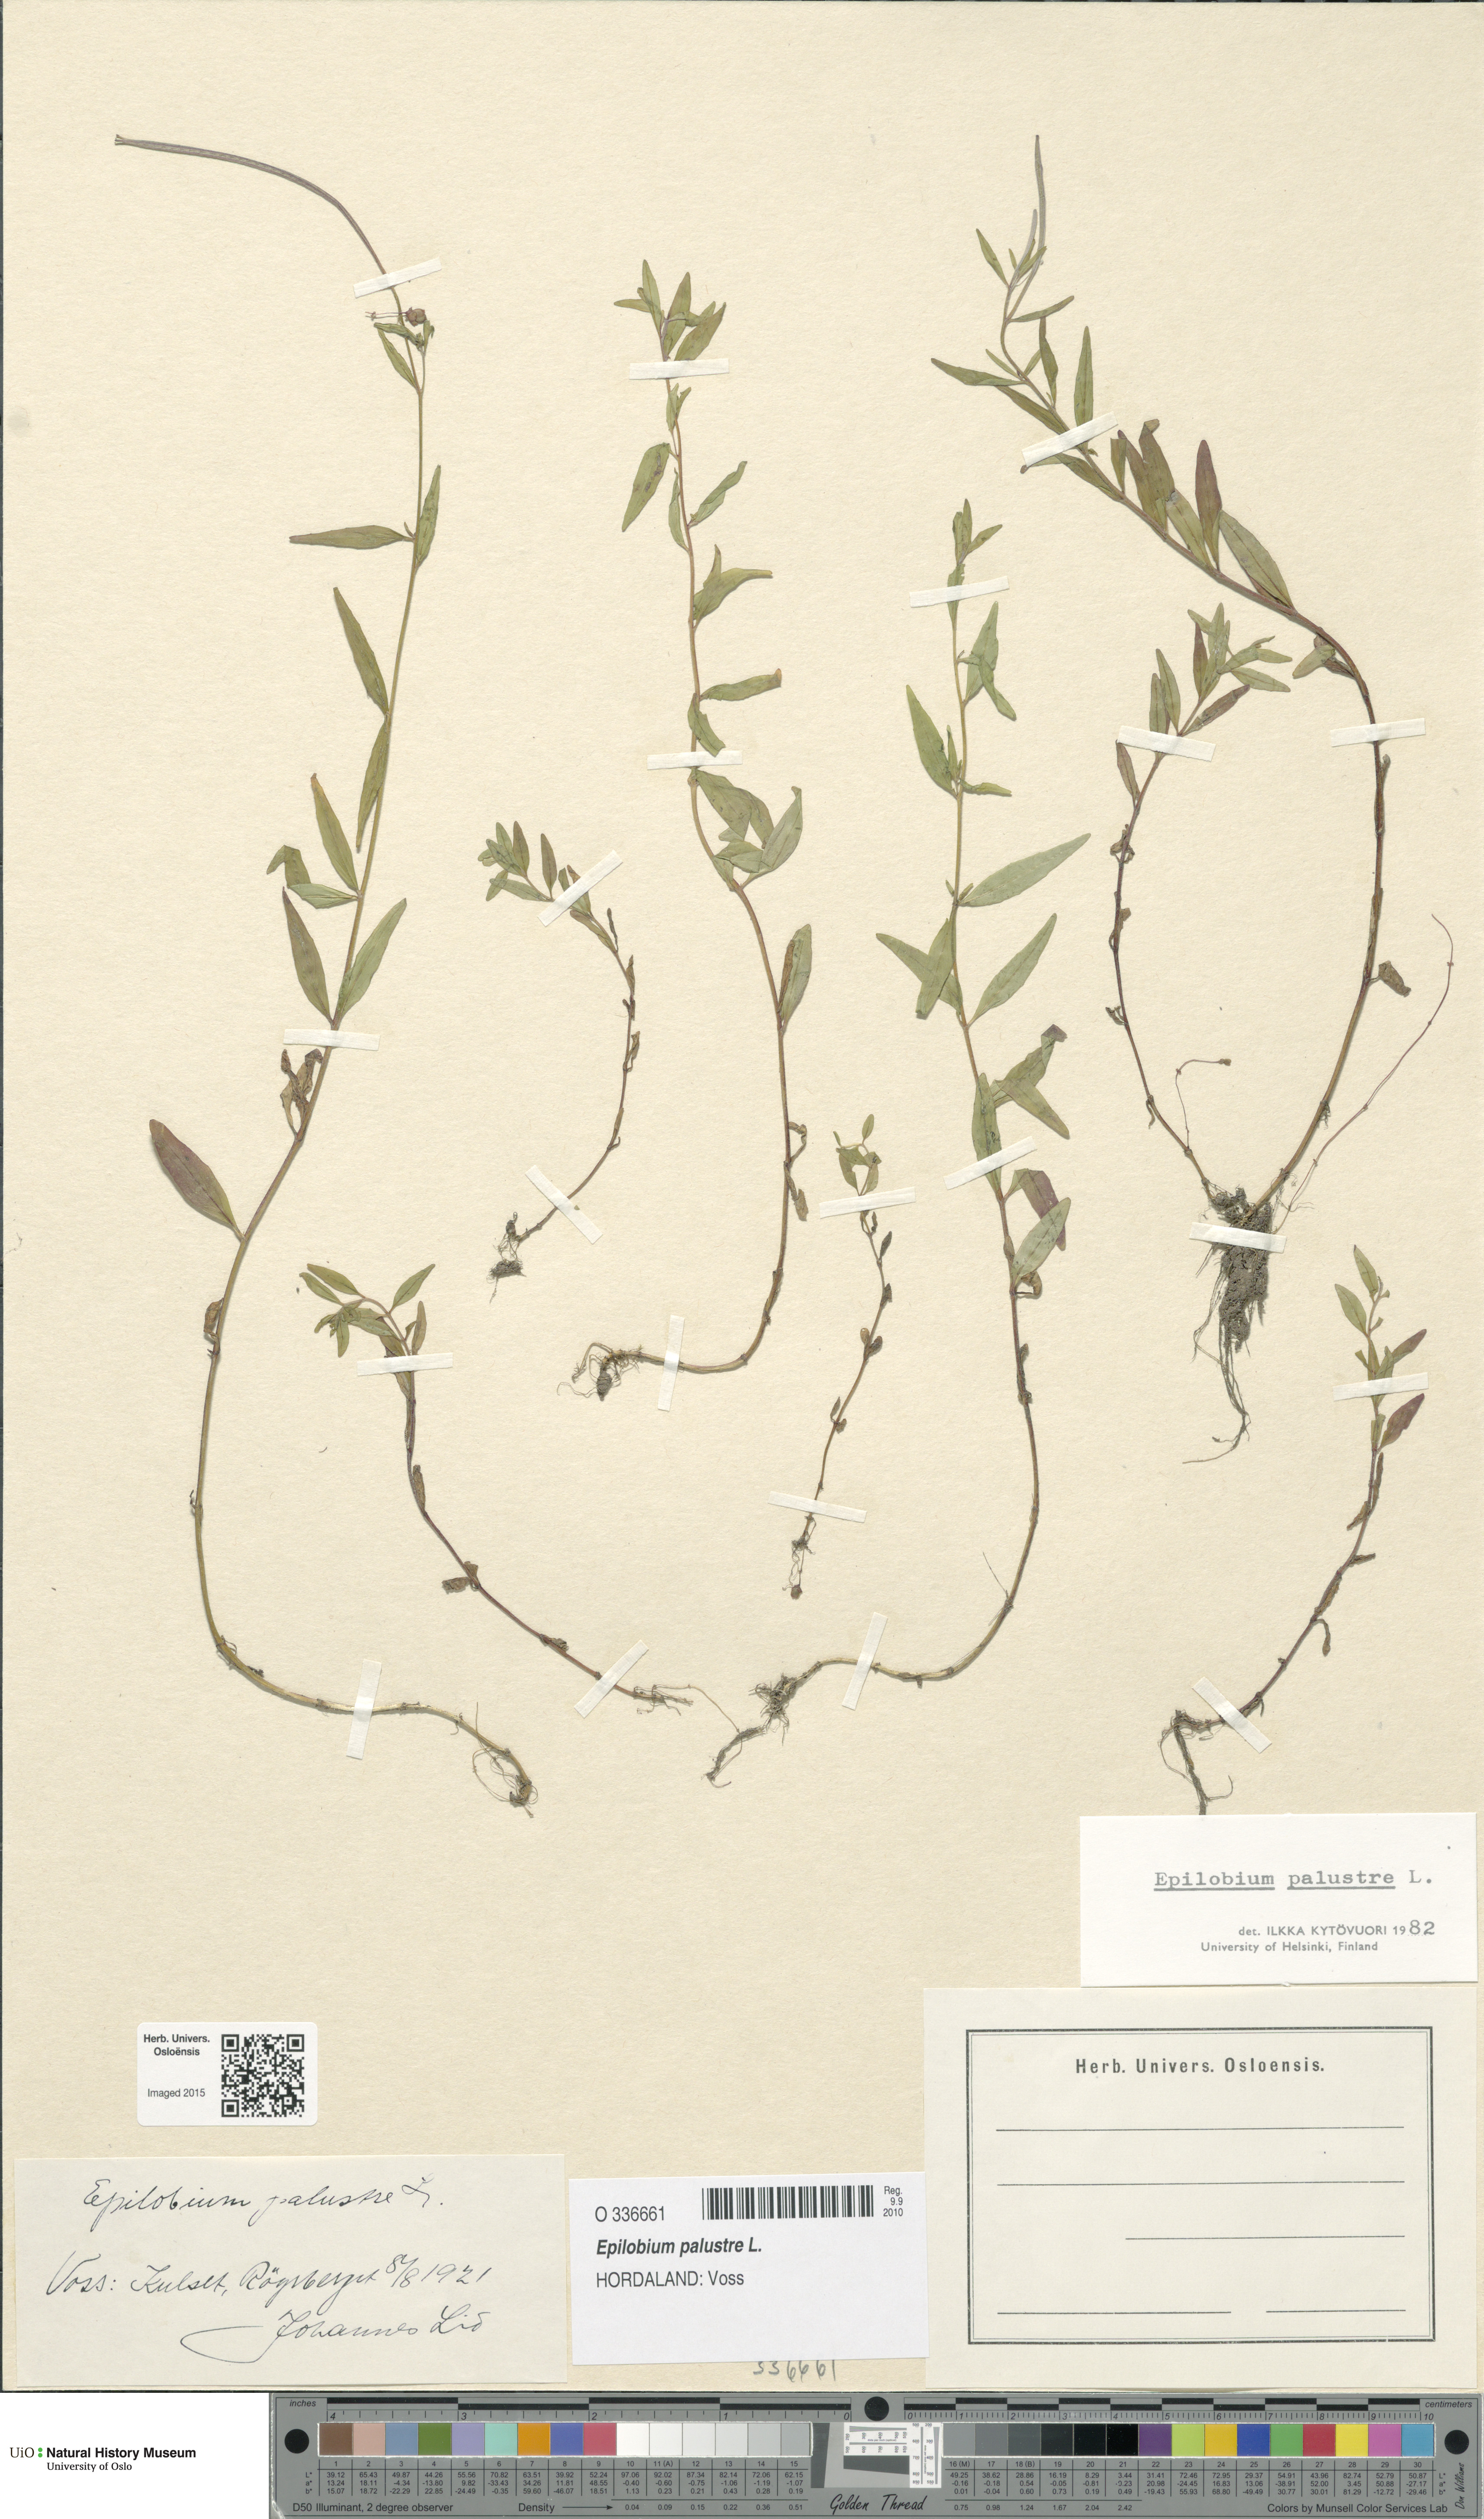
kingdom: Plantae
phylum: Tracheophyta
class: Magnoliopsida
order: Myrtales
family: Onagraceae
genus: Epilobium
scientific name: Epilobium palustre
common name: Marsh willowherb
